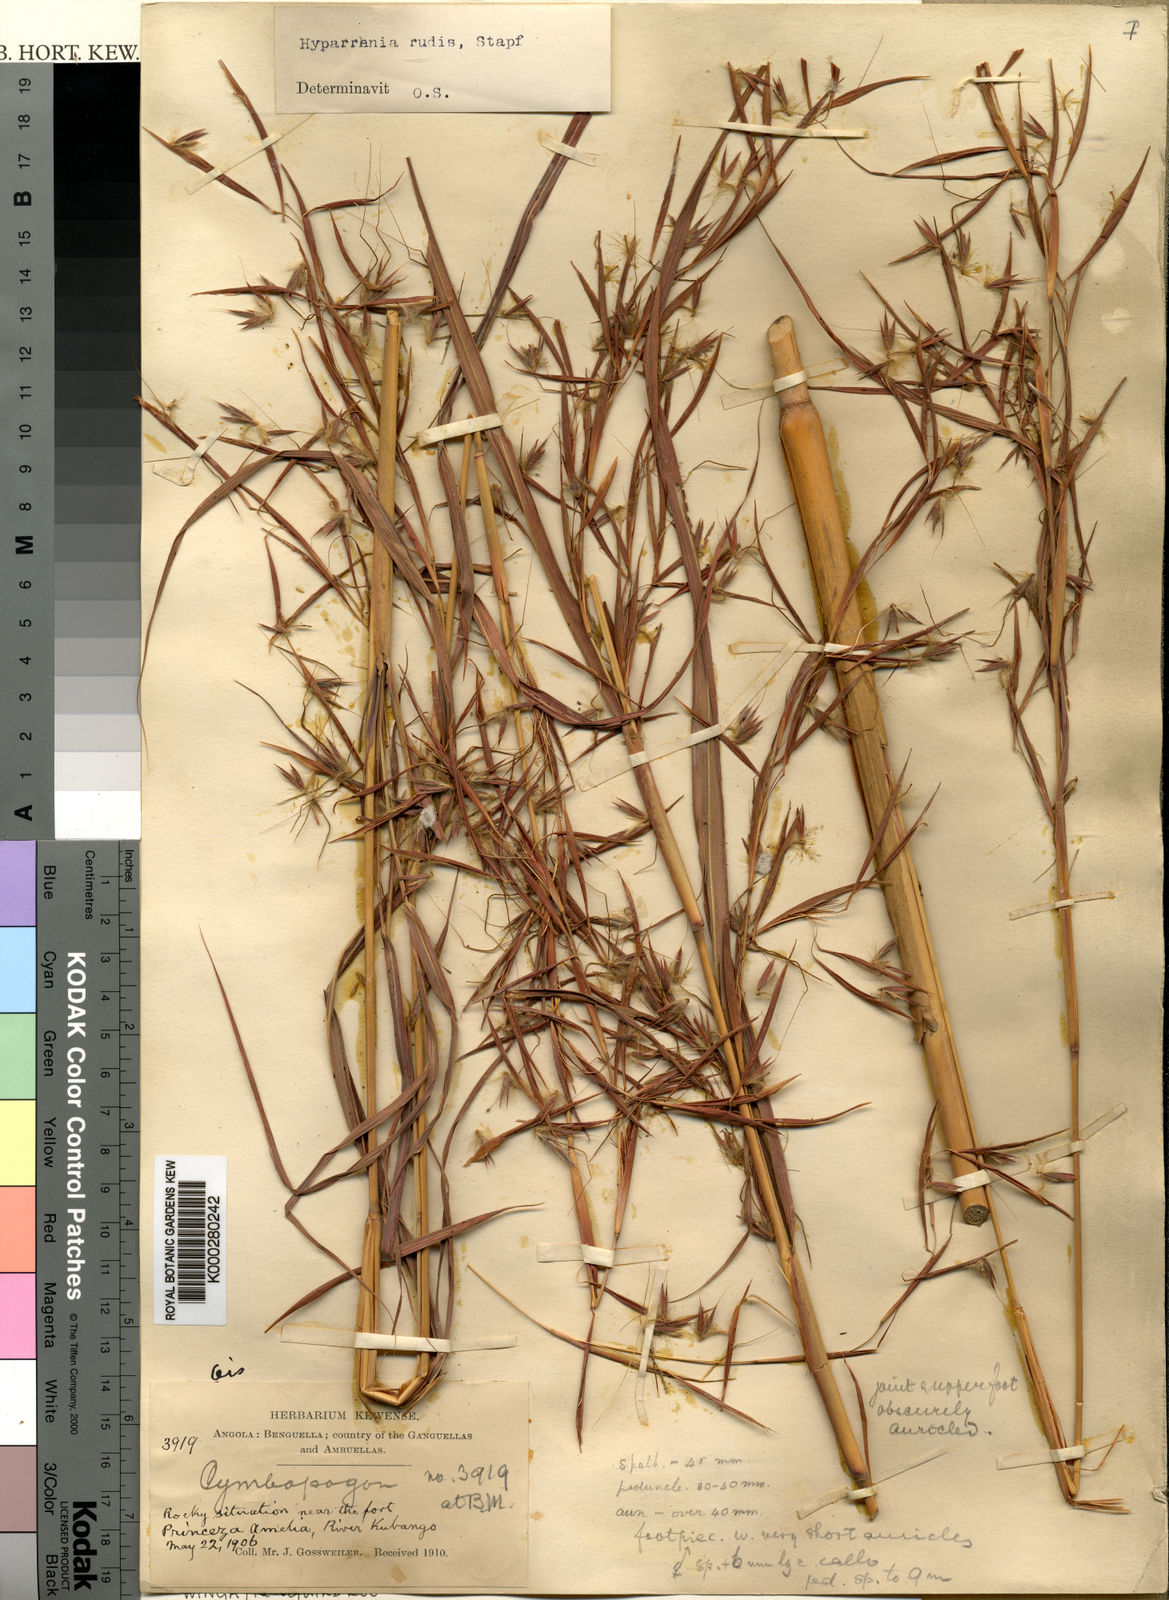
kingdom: Plantae
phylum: Tracheophyta
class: Liliopsida
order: Poales
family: Poaceae
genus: Hyparrhenia
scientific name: Hyparrhenia rudis
